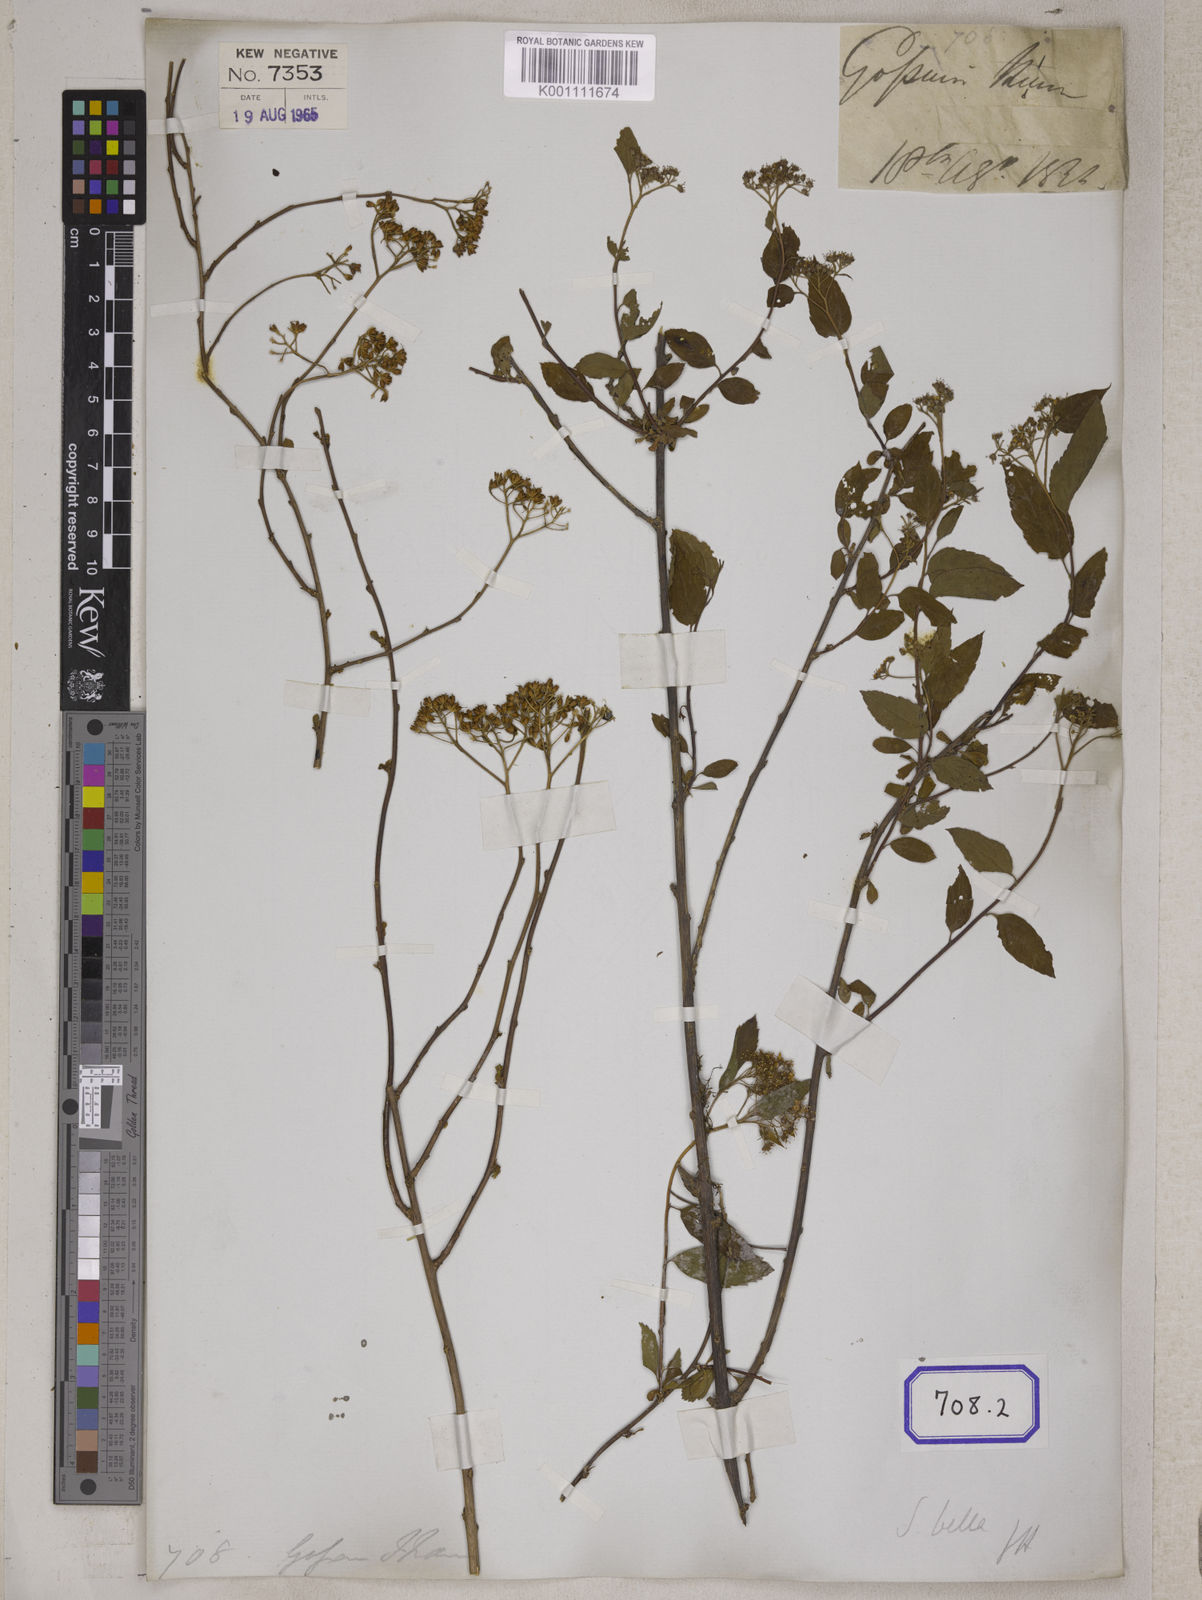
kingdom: Plantae
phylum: Tracheophyta
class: Magnoliopsida
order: Rosales
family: Rosaceae
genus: Spiraea
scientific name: Spiraea
